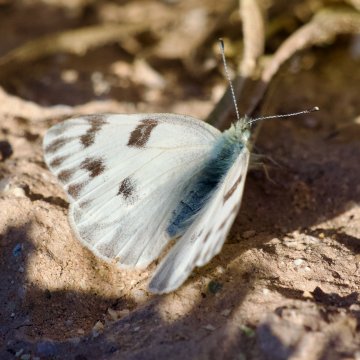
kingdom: Animalia
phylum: Arthropoda
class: Insecta
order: Lepidoptera
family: Pieridae
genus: Pontia
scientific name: Pontia occidentalis
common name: Western White
